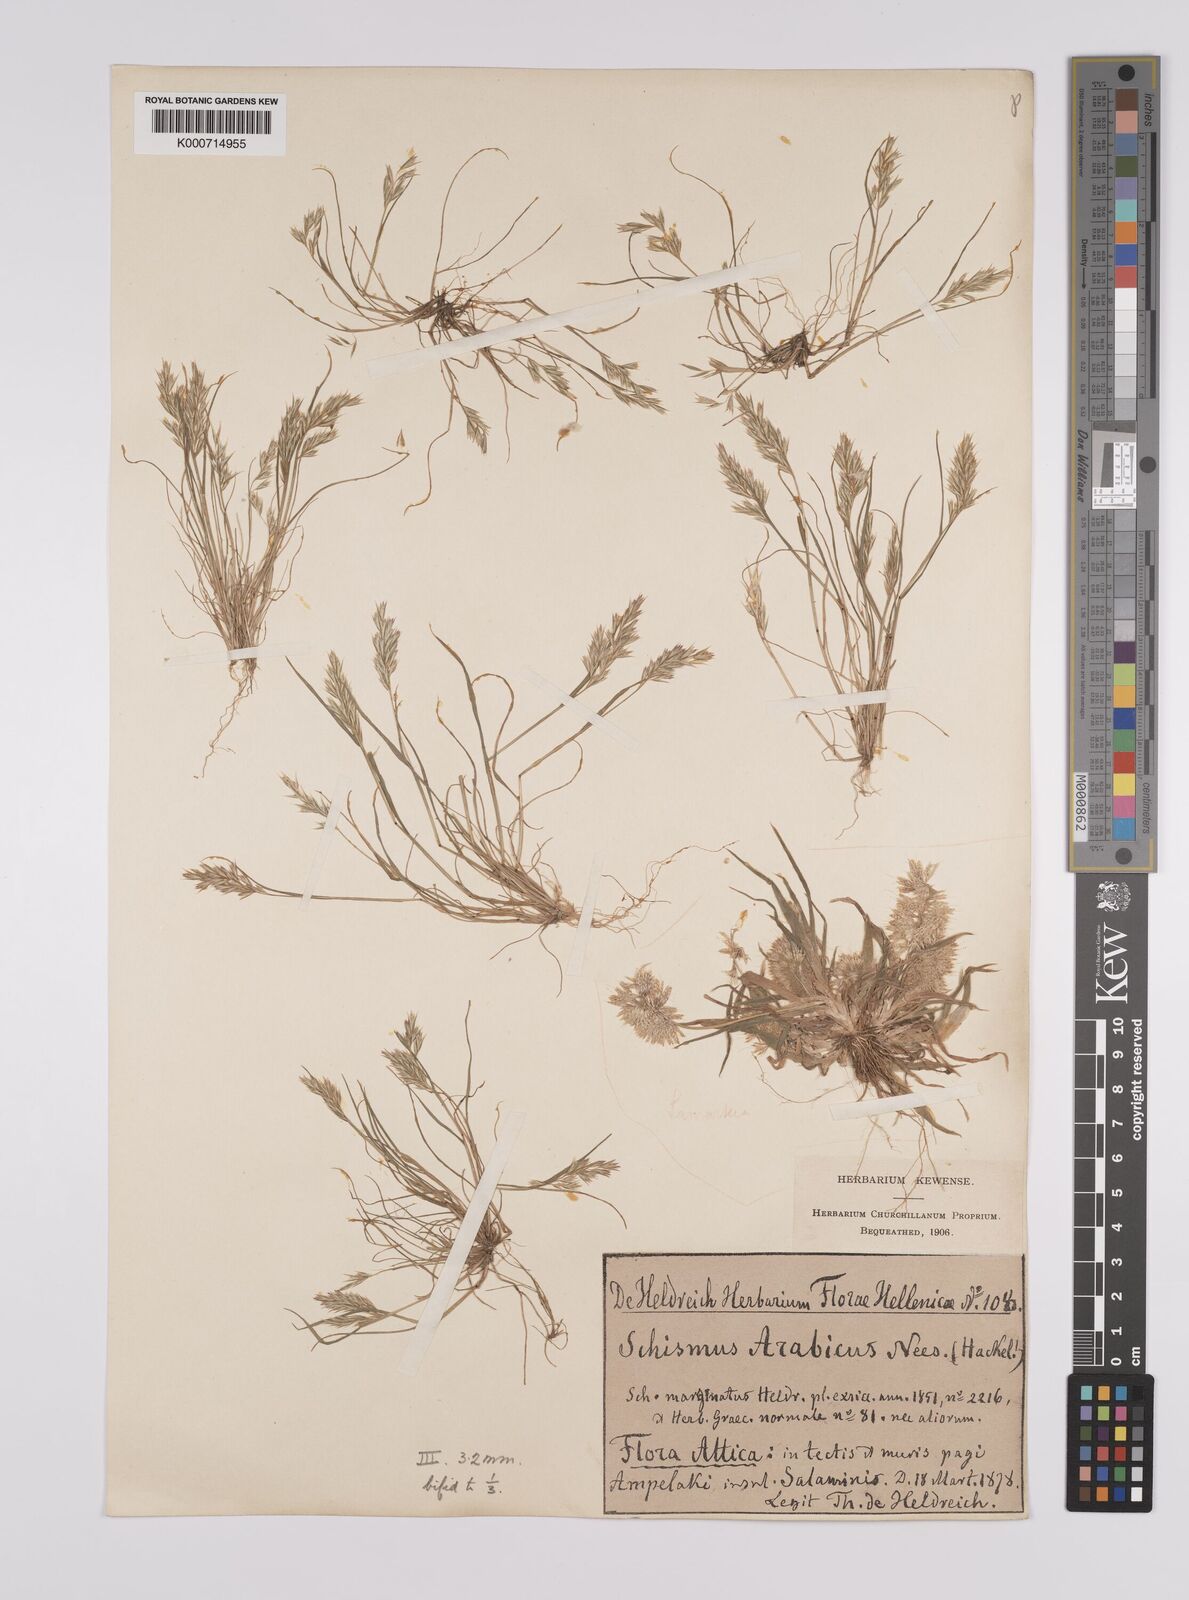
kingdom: Plantae
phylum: Tracheophyta
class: Liliopsida
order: Poales
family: Poaceae
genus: Schismus
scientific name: Schismus arabicus
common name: Arabian schismus
